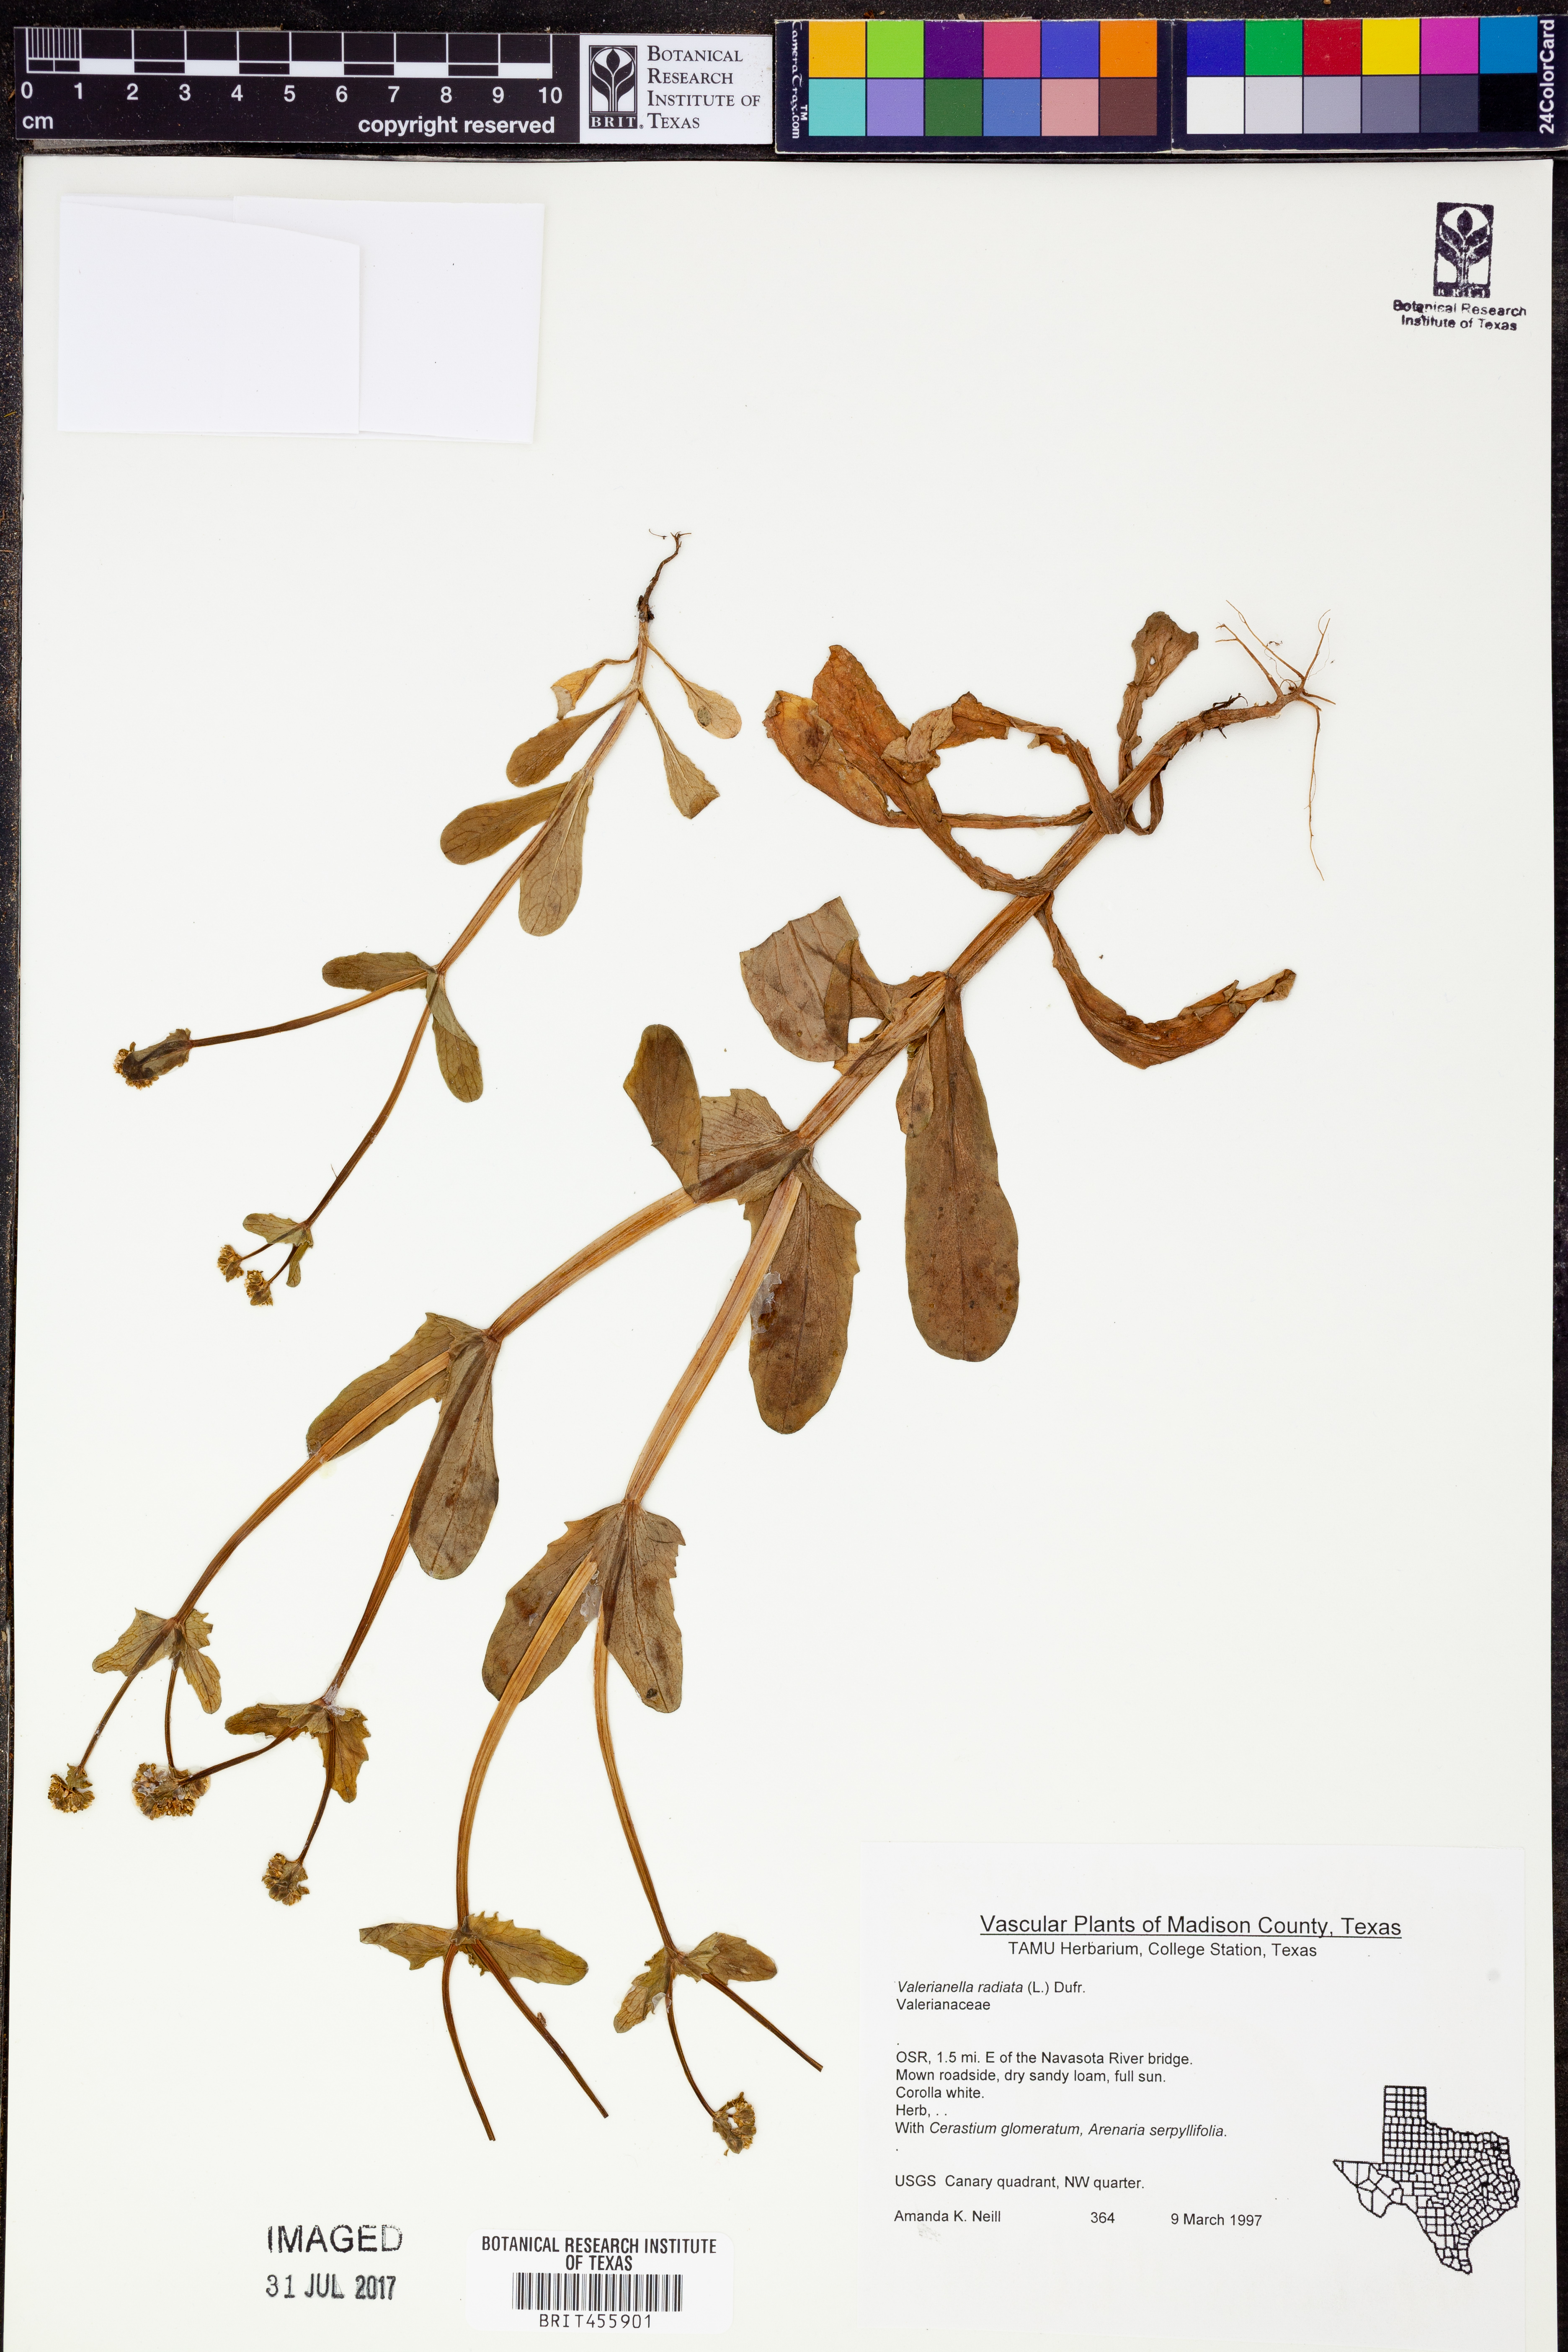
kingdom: Plantae
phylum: Tracheophyta
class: Magnoliopsida
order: Dipsacales
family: Caprifoliaceae
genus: Valerianella
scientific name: Valerianella radiata
